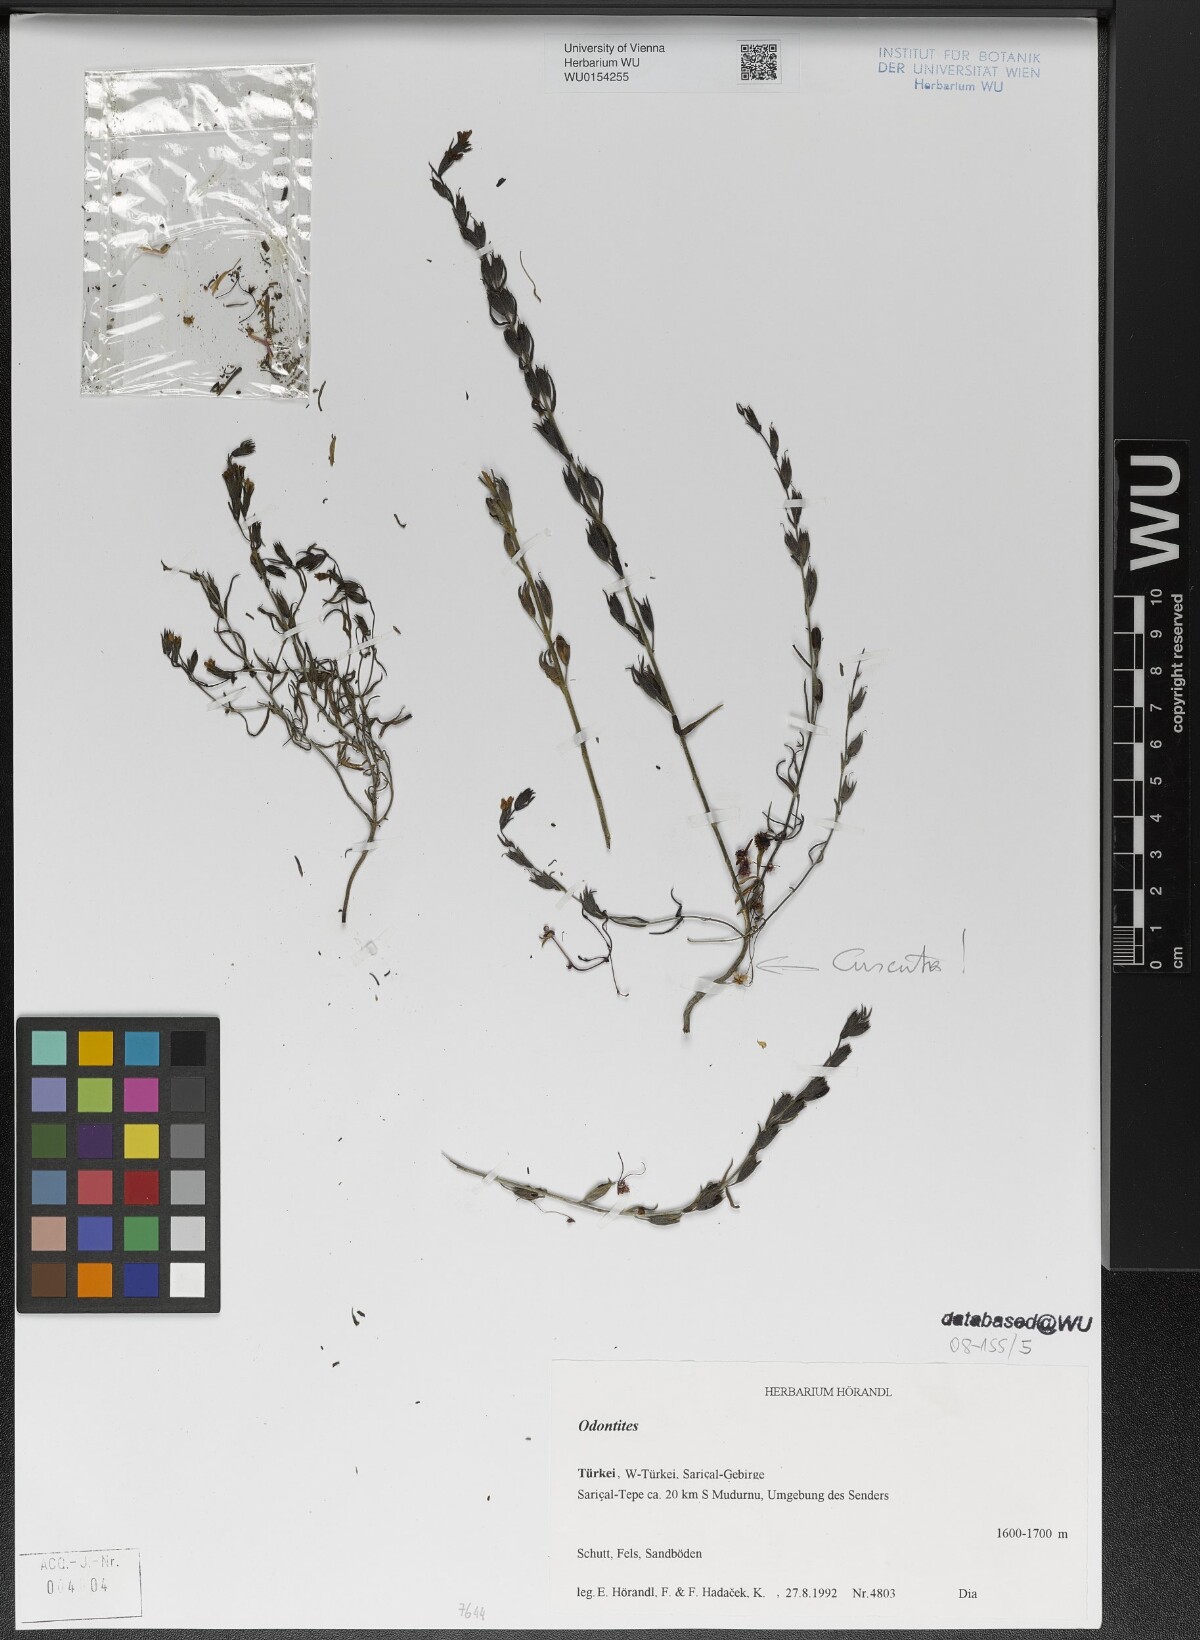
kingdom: Plantae
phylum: Tracheophyta
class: Magnoliopsida
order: Lamiales
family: Orobanchaceae
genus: Odontites
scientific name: Odontites
